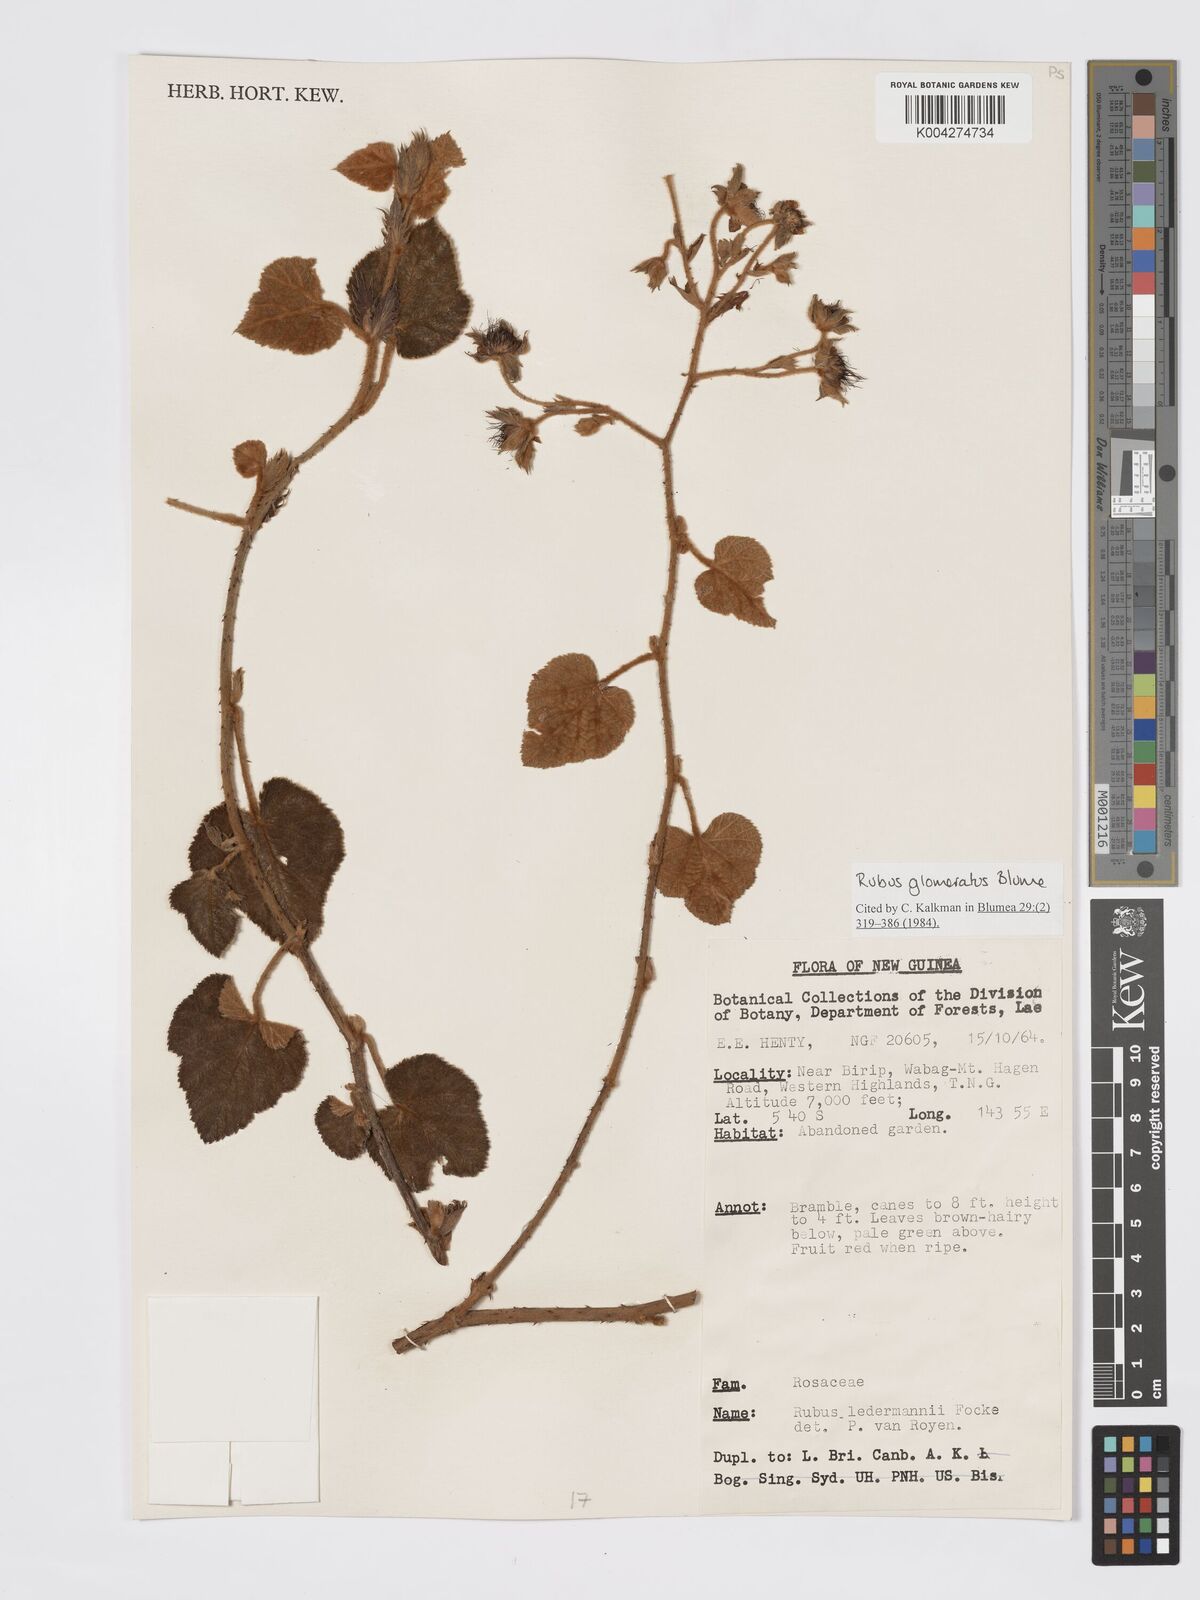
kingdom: Plantae
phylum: Tracheophyta
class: Magnoliopsida
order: Rosales
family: Rosaceae
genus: Rubus
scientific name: Rubus
